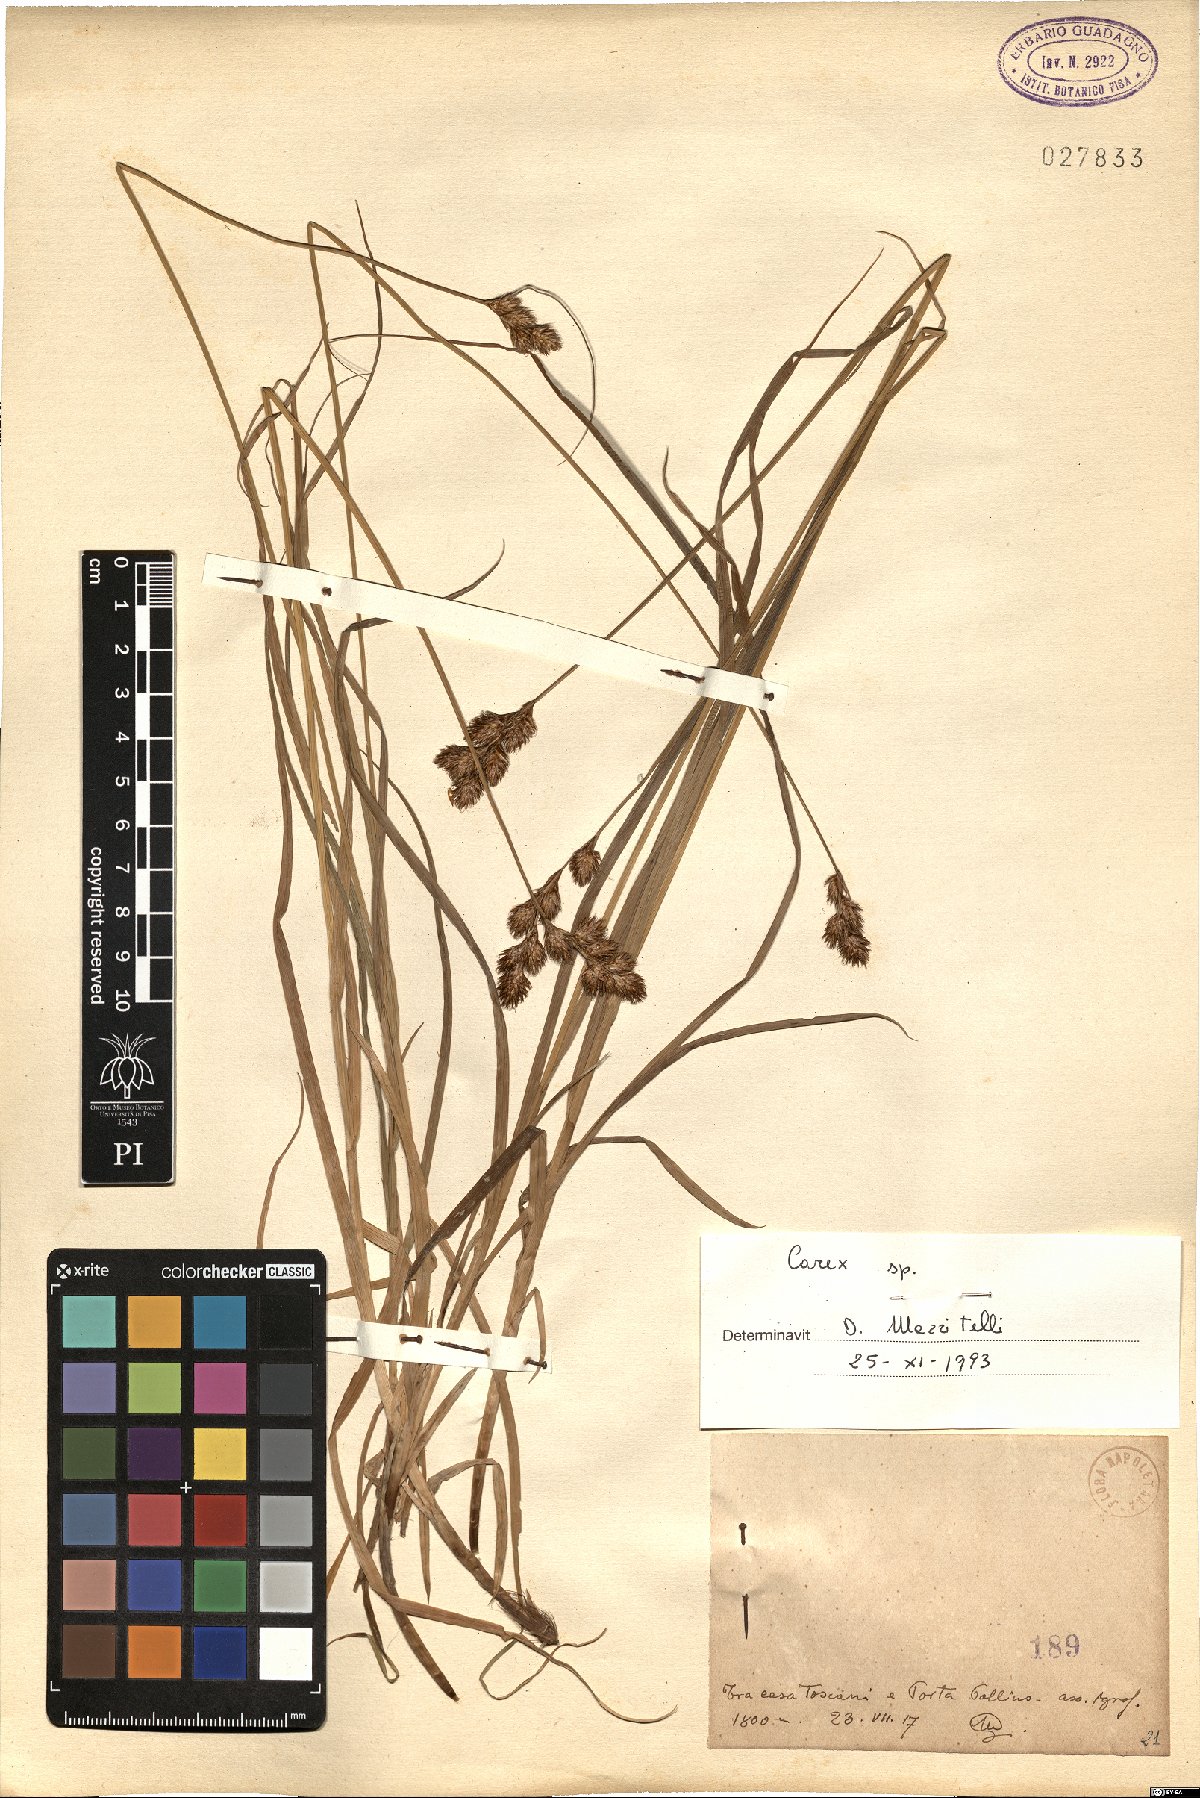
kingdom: Plantae
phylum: Tracheophyta
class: Liliopsida
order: Poales
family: Cyperaceae
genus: Carex
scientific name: Carex
